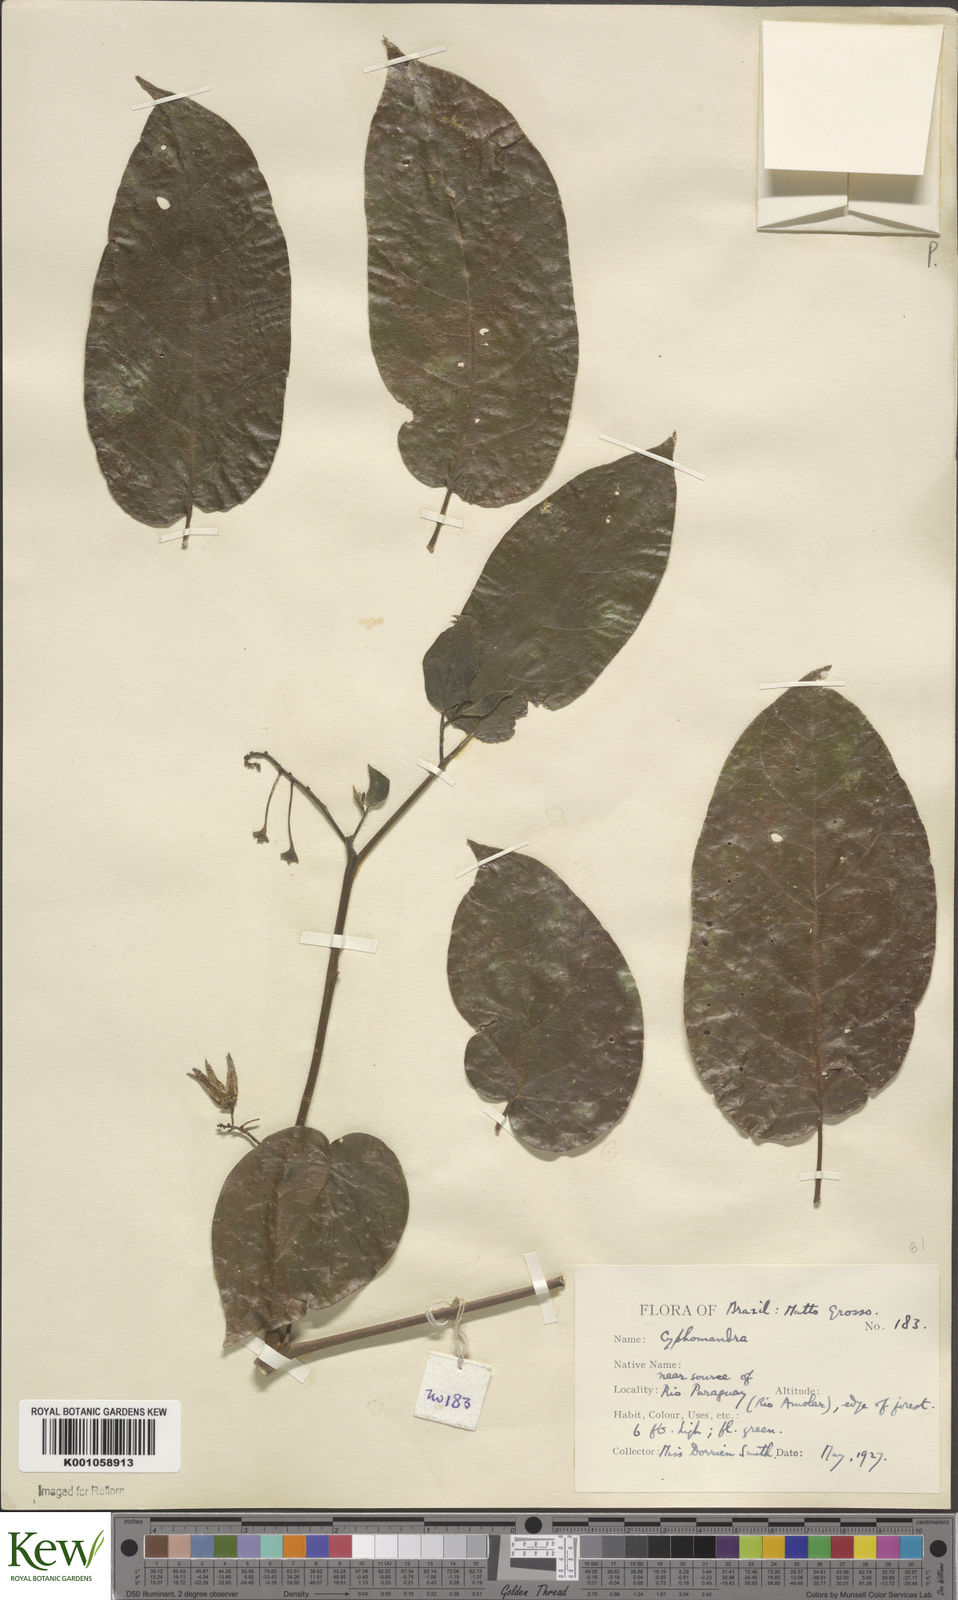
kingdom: Plantae
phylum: Tracheophyta
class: Magnoliopsida
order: Solanales
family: Solanaceae
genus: Solanum
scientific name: Solanum
